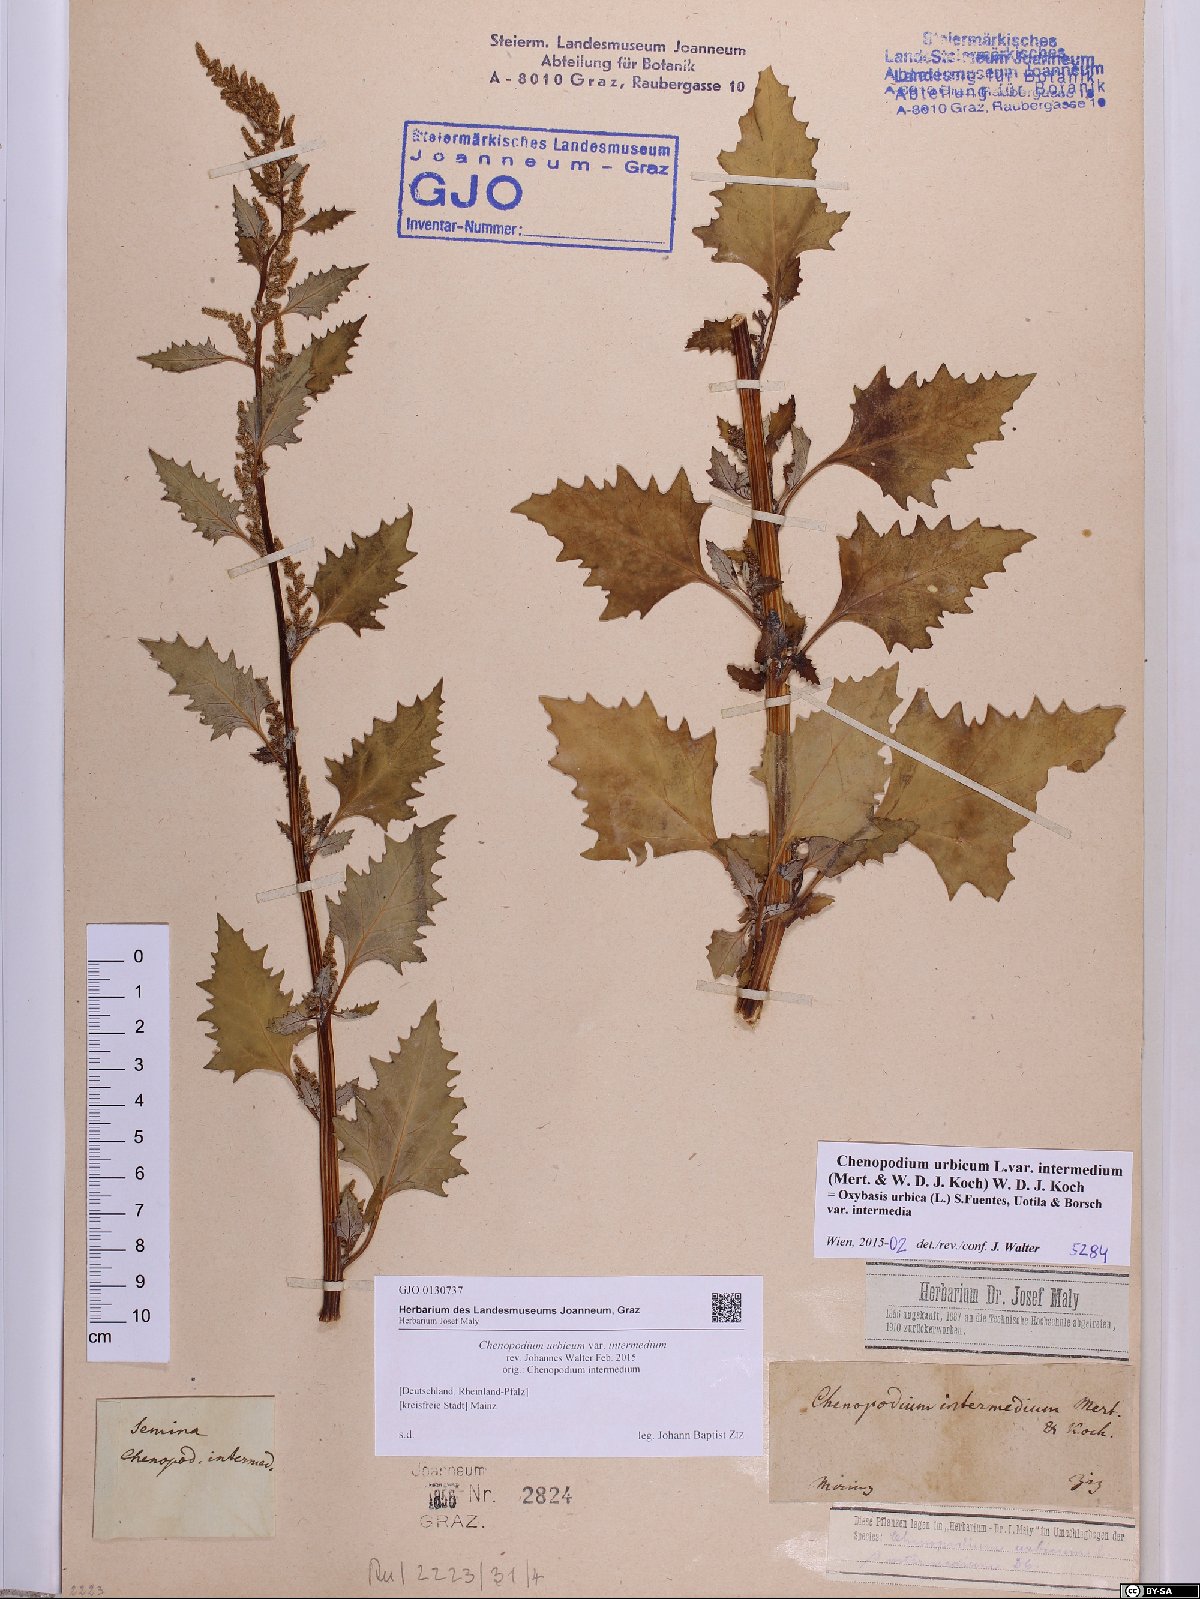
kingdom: Plantae
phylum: Tracheophyta
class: Magnoliopsida
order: Caryophyllales
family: Amaranthaceae
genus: Oxybasis
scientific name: Oxybasis rhombifolia
